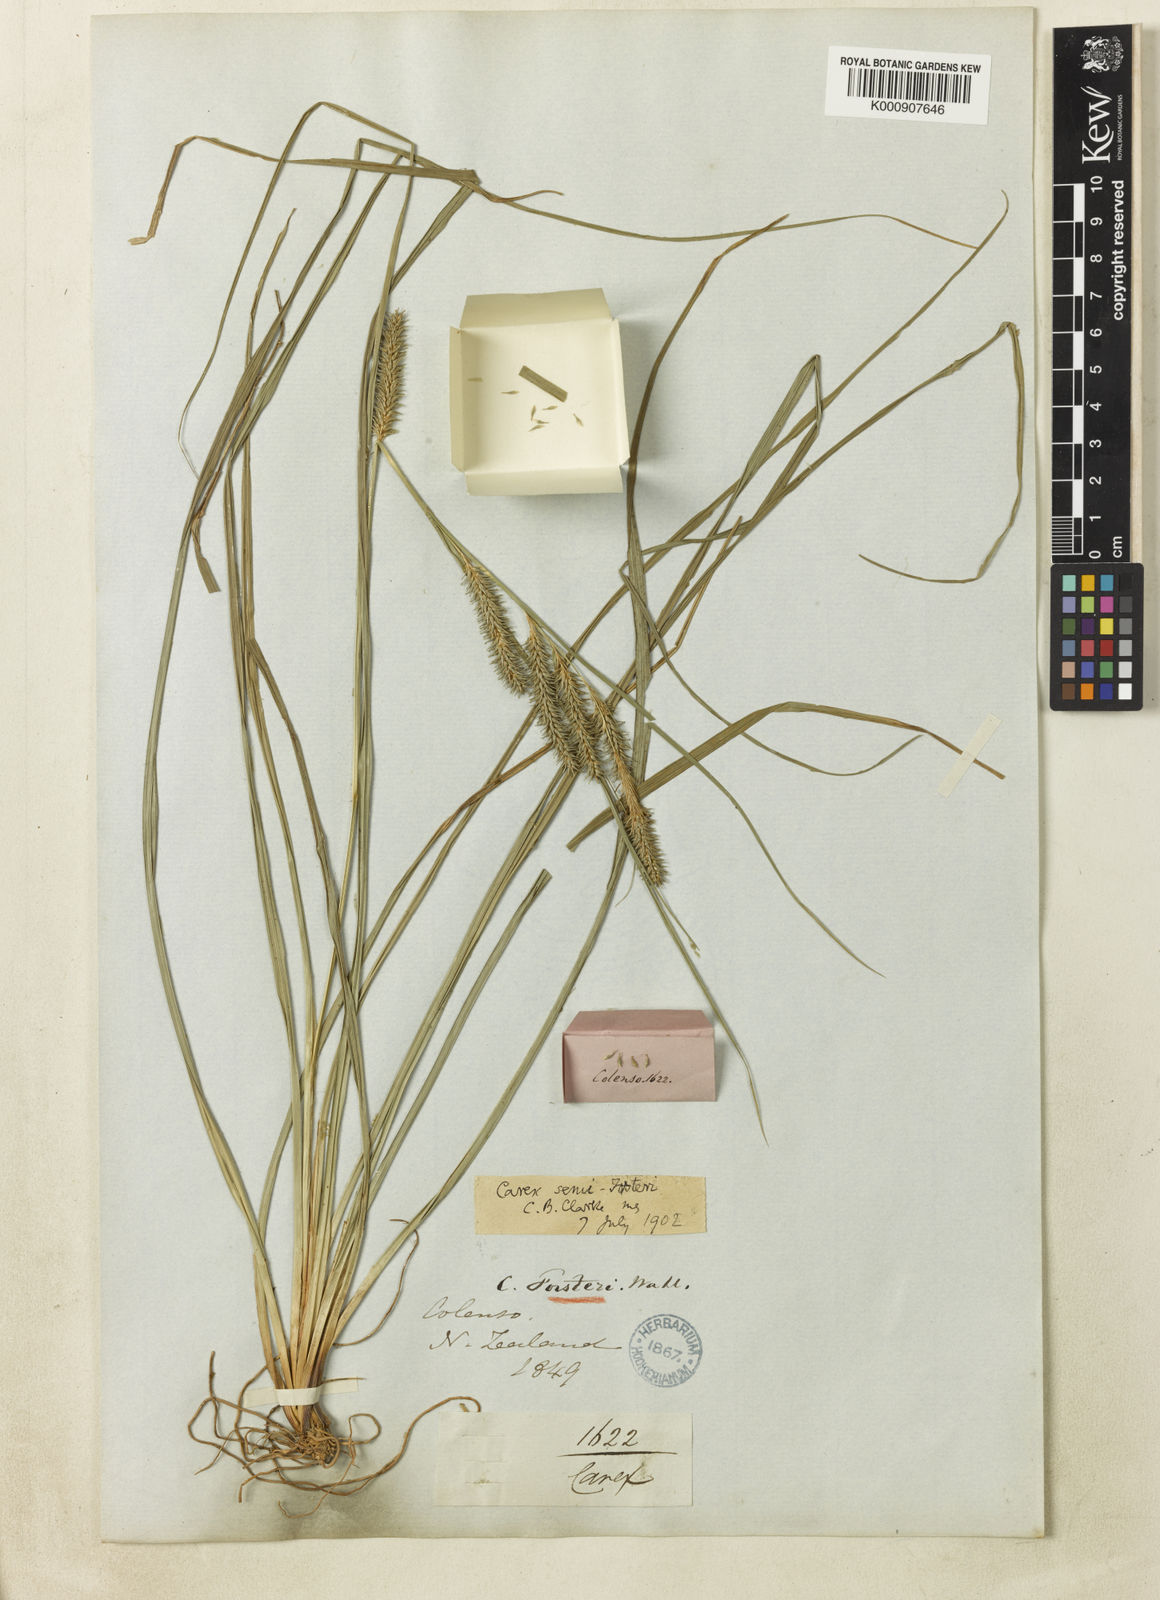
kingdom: Plantae
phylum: Tracheophyta
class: Liliopsida
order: Poales
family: Cyperaceae
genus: Carex
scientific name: Carex forsteri
